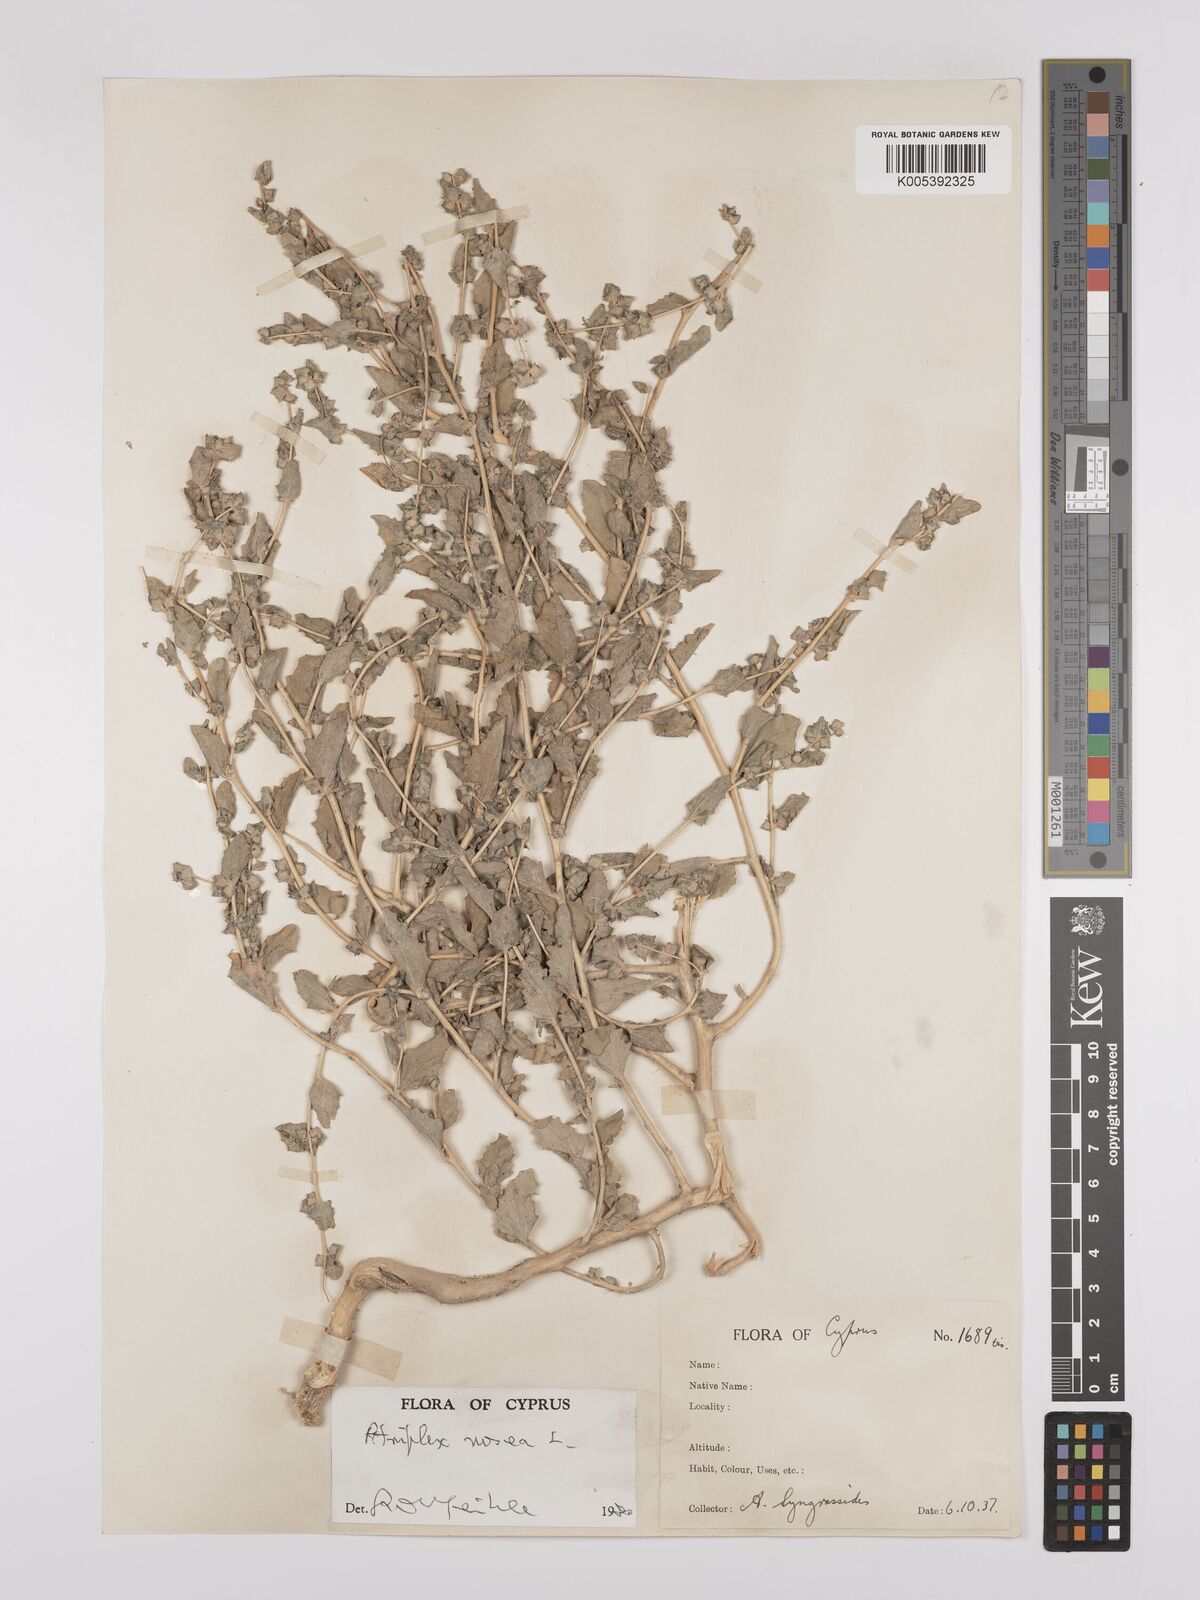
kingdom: Plantae
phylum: Tracheophyta
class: Magnoliopsida
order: Caryophyllales
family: Amaranthaceae
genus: Atriplex
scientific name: Atriplex
